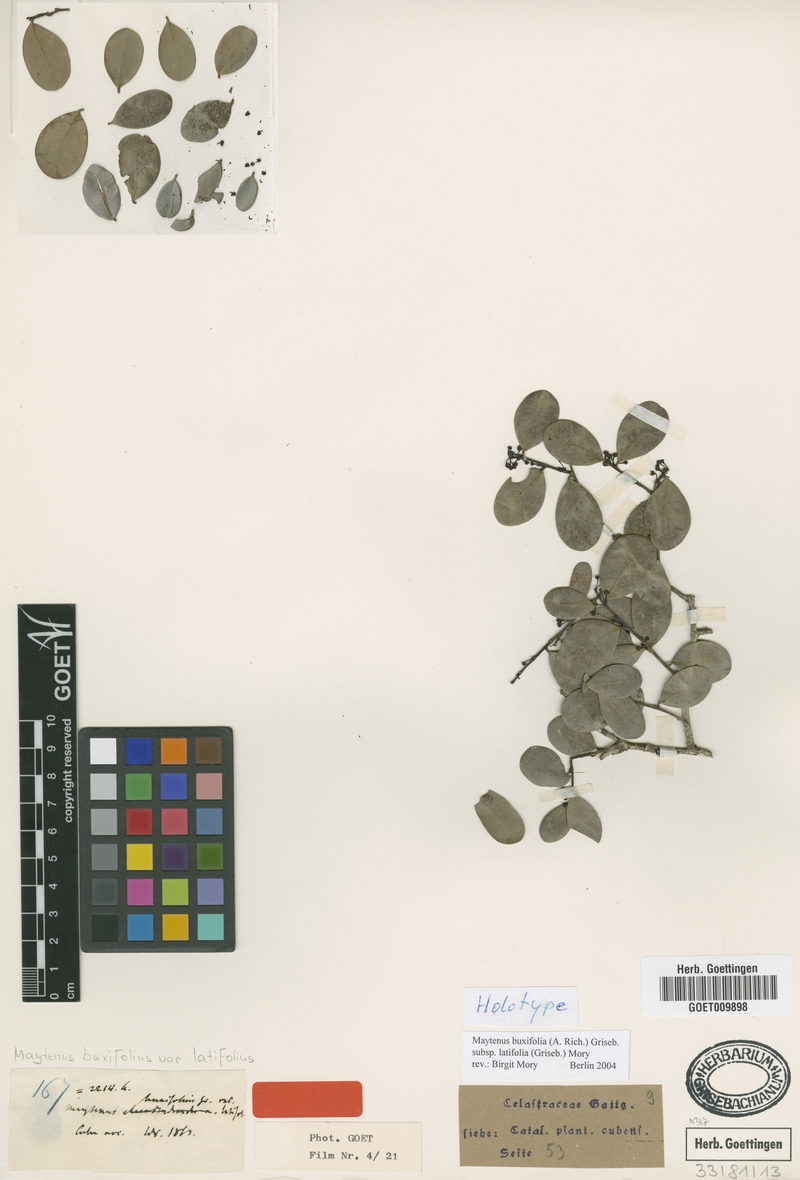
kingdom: Plantae
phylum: Tracheophyta
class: Magnoliopsida
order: Celastrales
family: Celastraceae
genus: Monteverdia
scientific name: Monteverdia buxifolia
